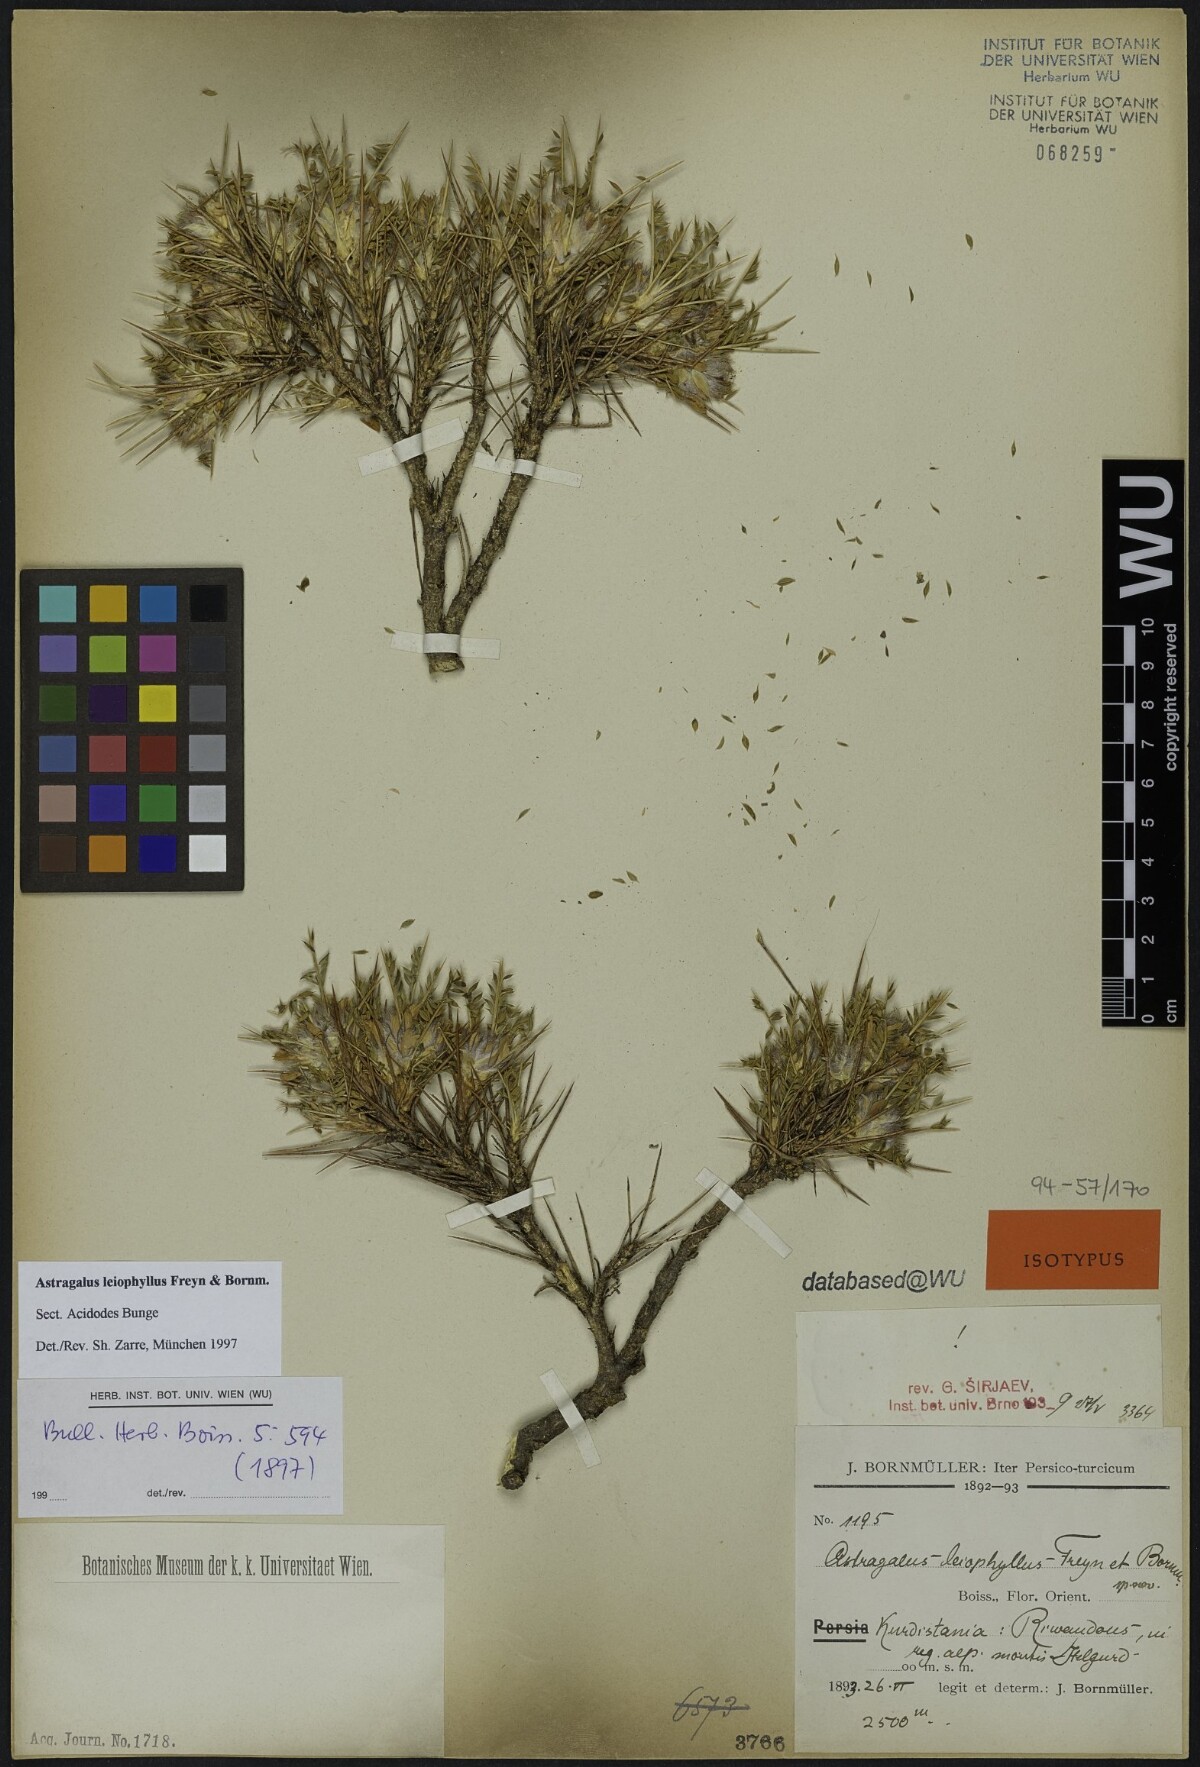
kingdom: Plantae
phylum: Tracheophyta
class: Magnoliopsida
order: Fabales
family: Fabaceae
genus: Astragalus
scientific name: Astragalus leiophyllus
